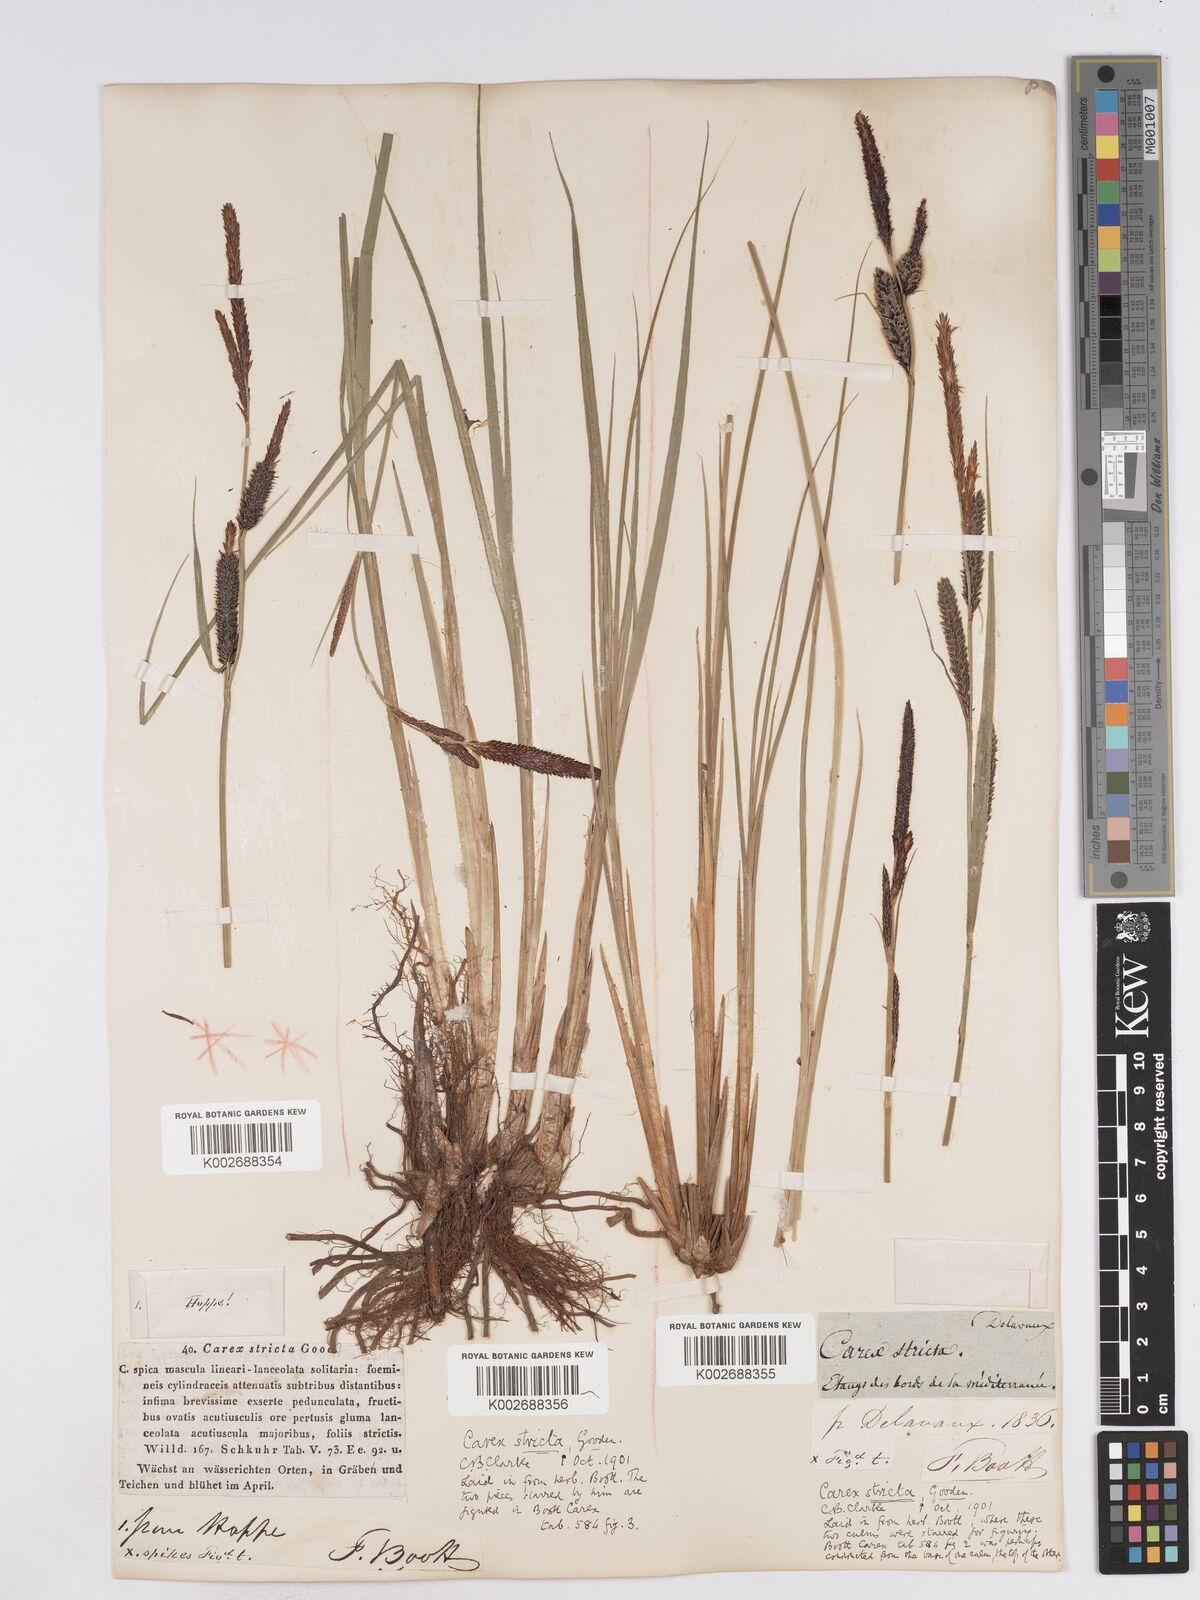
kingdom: Plantae
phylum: Tracheophyta
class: Liliopsida
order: Poales
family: Cyperaceae
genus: Carex
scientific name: Carex elata
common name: Tufted sedge
